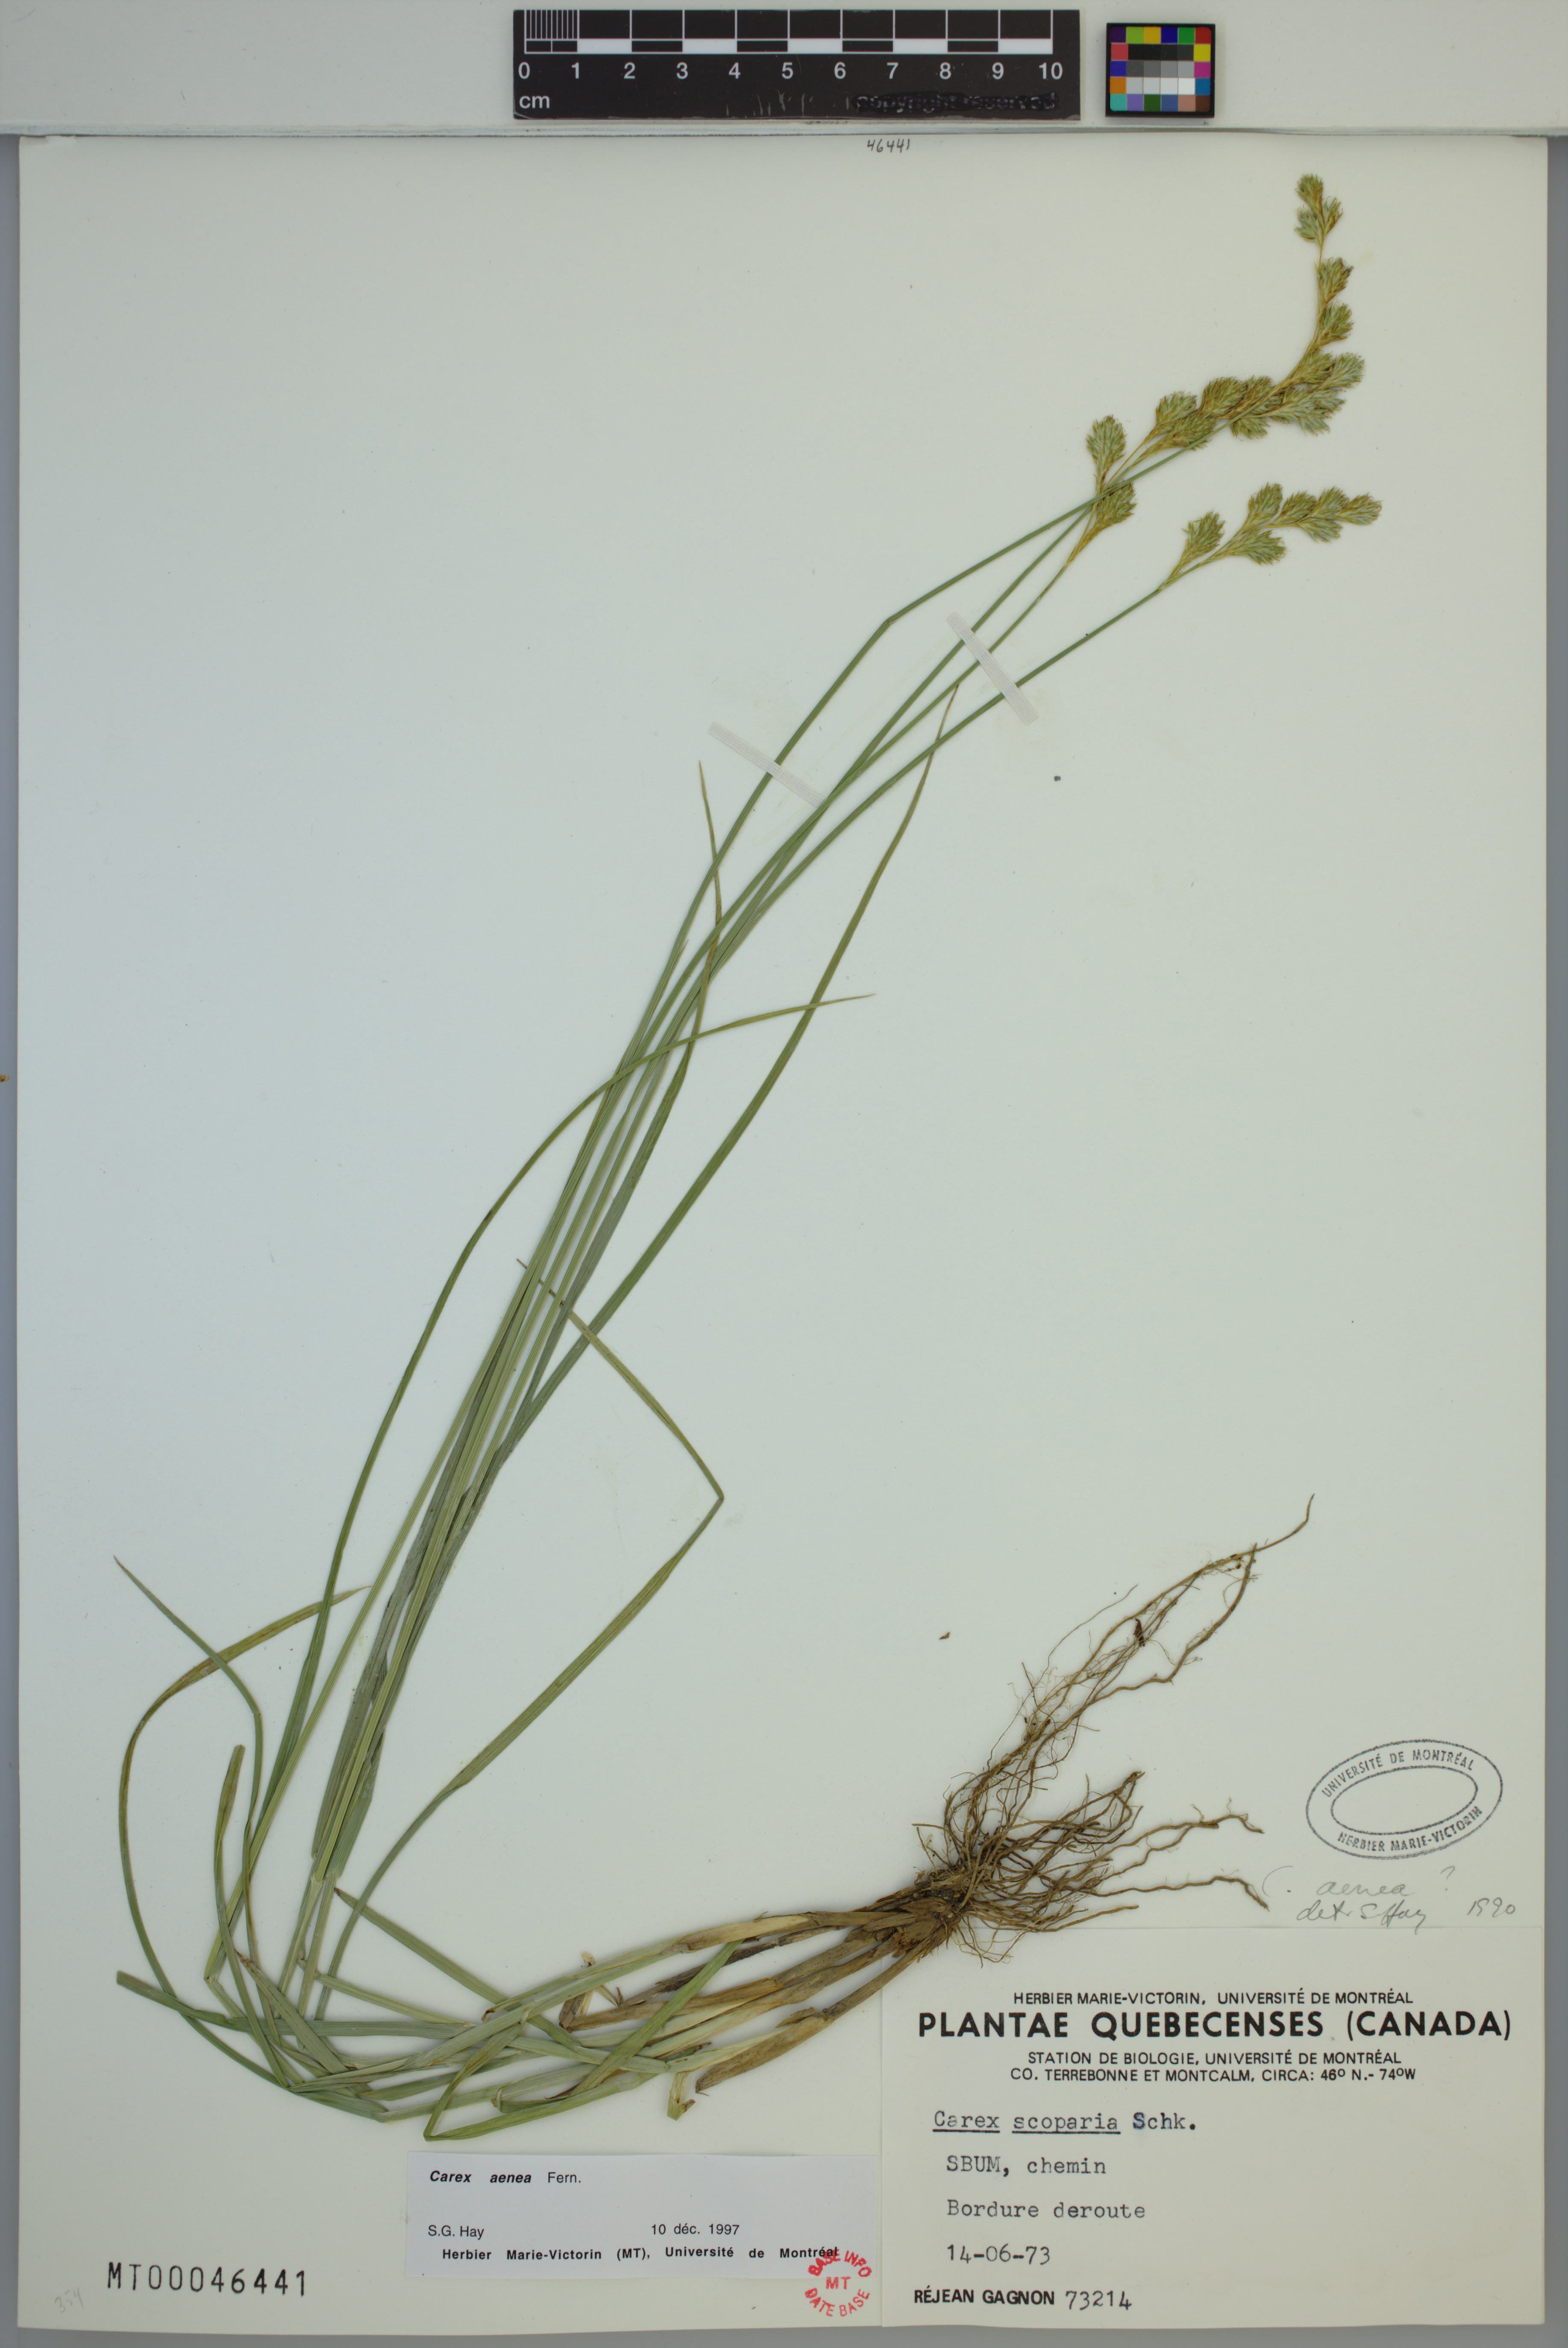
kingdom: Plantae
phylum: Tracheophyta
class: Liliopsida
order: Poales
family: Cyperaceae
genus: Carex
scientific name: Carex foenea
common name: Bronze sedge
